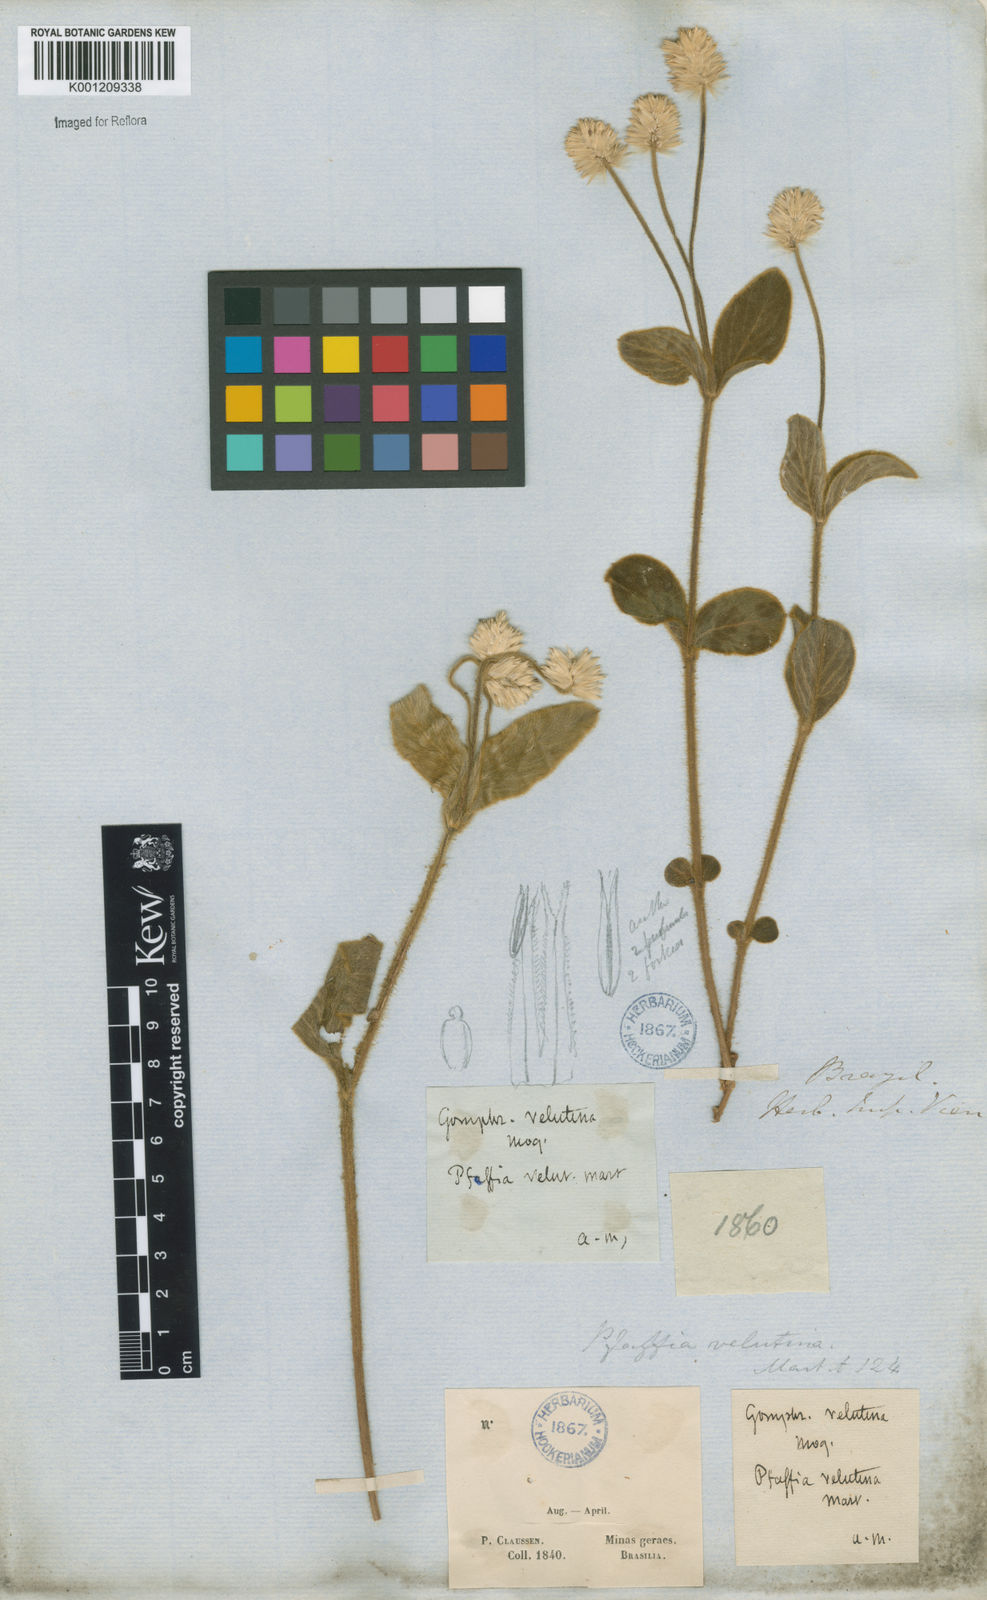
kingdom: Plantae
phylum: Tracheophyta
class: Magnoliopsida
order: Caryophyllales
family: Amaranthaceae
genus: Pfaffia
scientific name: Pfaffia velutina
